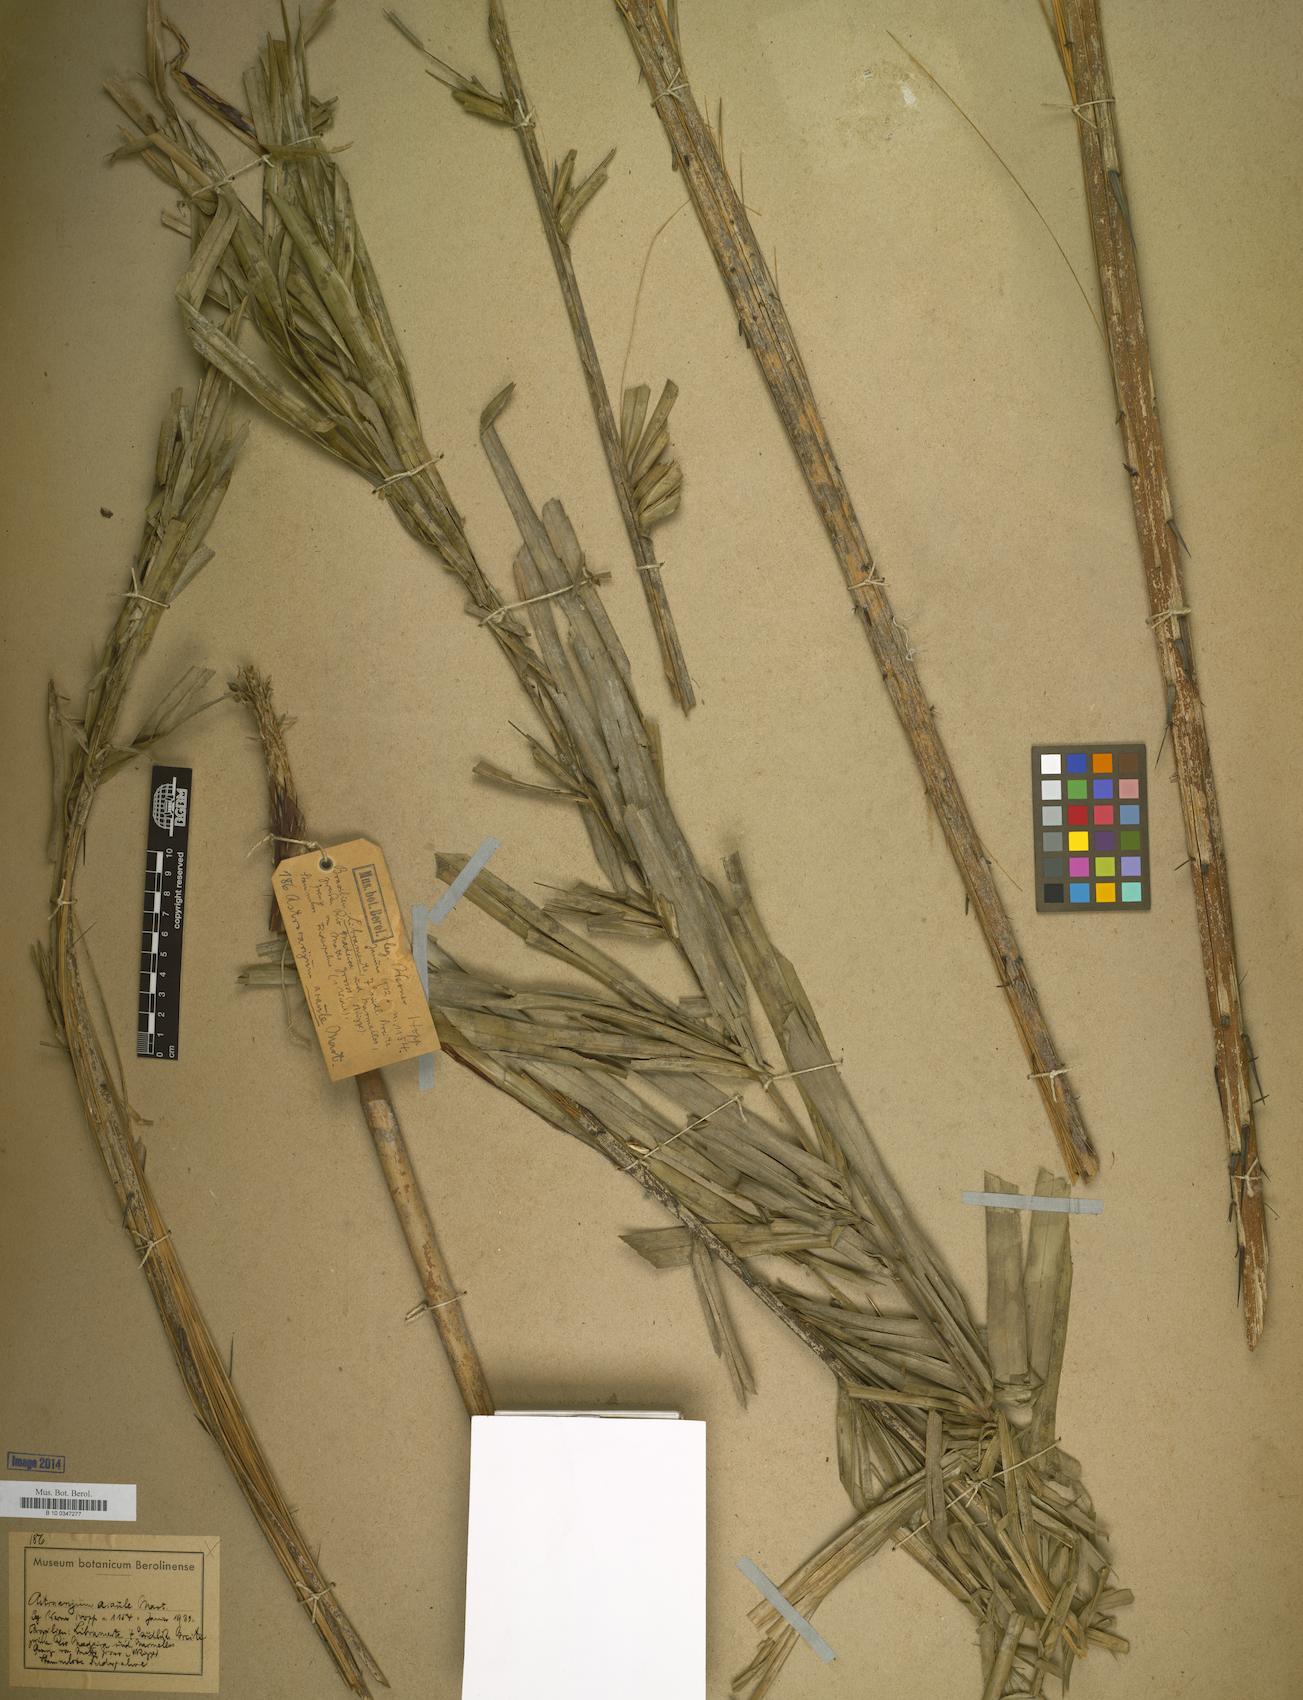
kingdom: Plantae
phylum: Tracheophyta
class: Liliopsida
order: Arecales
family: Arecaceae
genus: Astrocaryum
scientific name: Astrocaryum
